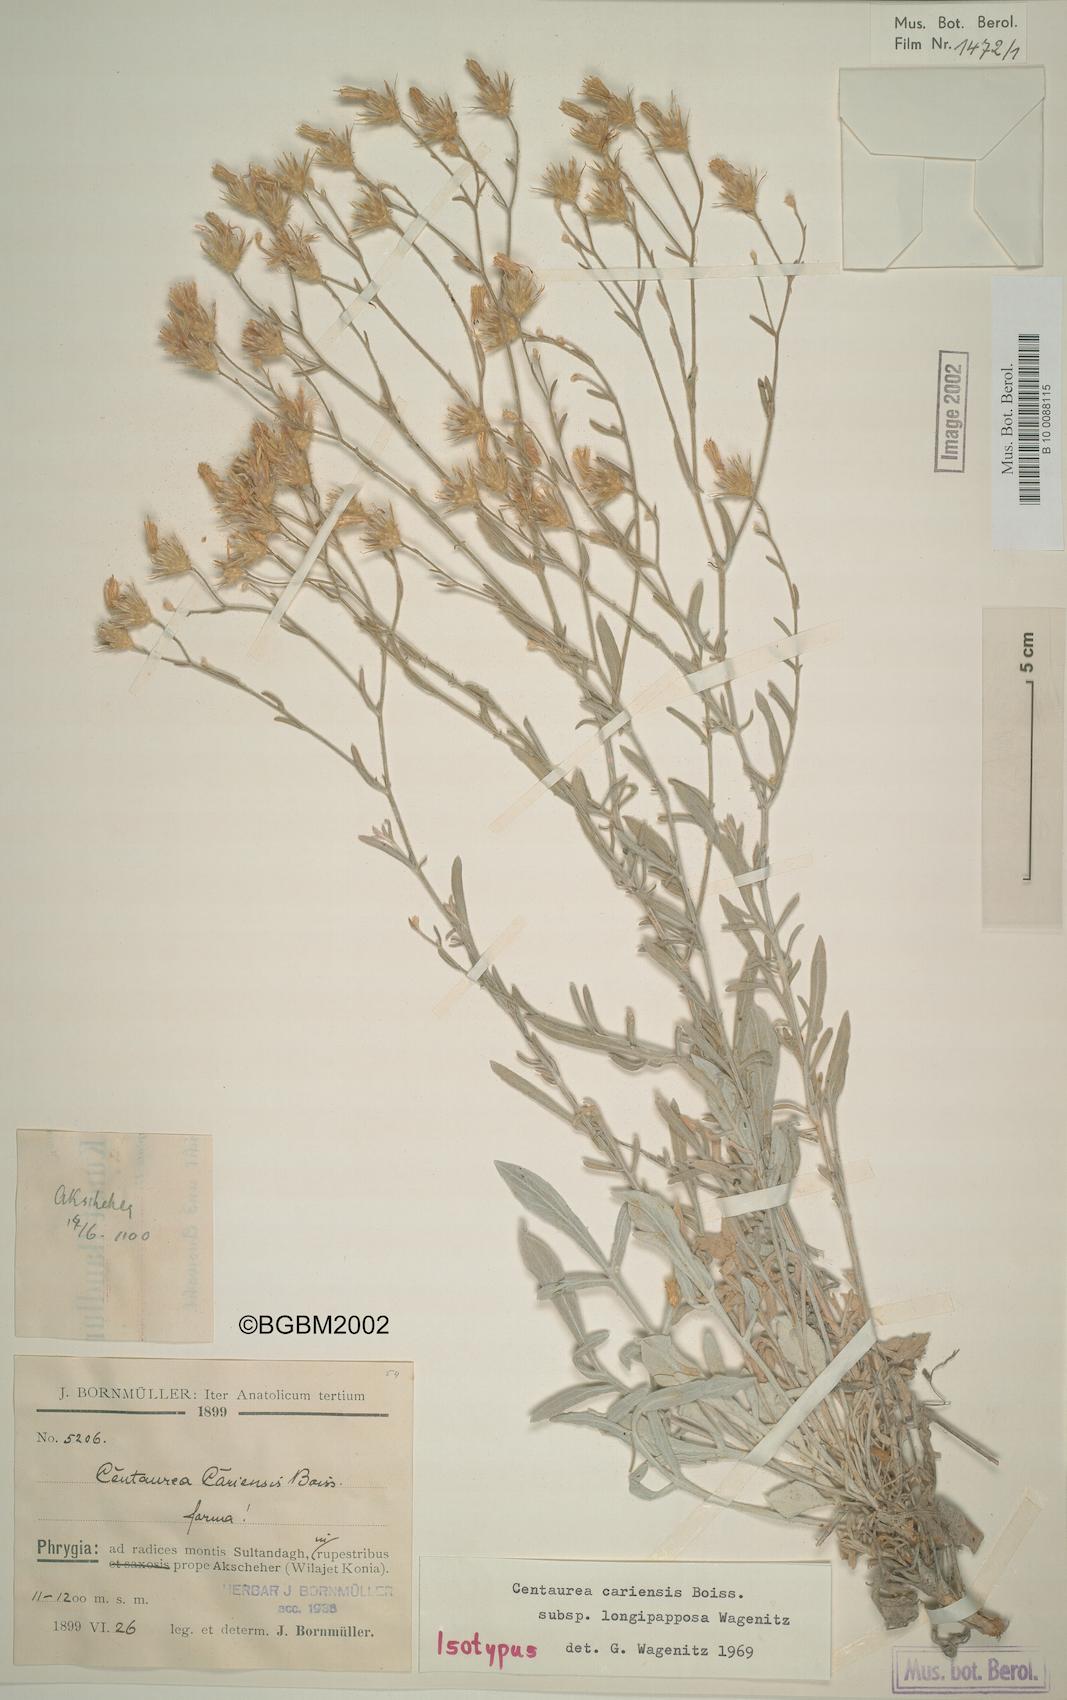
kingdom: Plantae
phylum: Tracheophyta
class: Magnoliopsida
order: Asterales
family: Asteraceae
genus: Centaurea
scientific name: Centaurea cariensis
